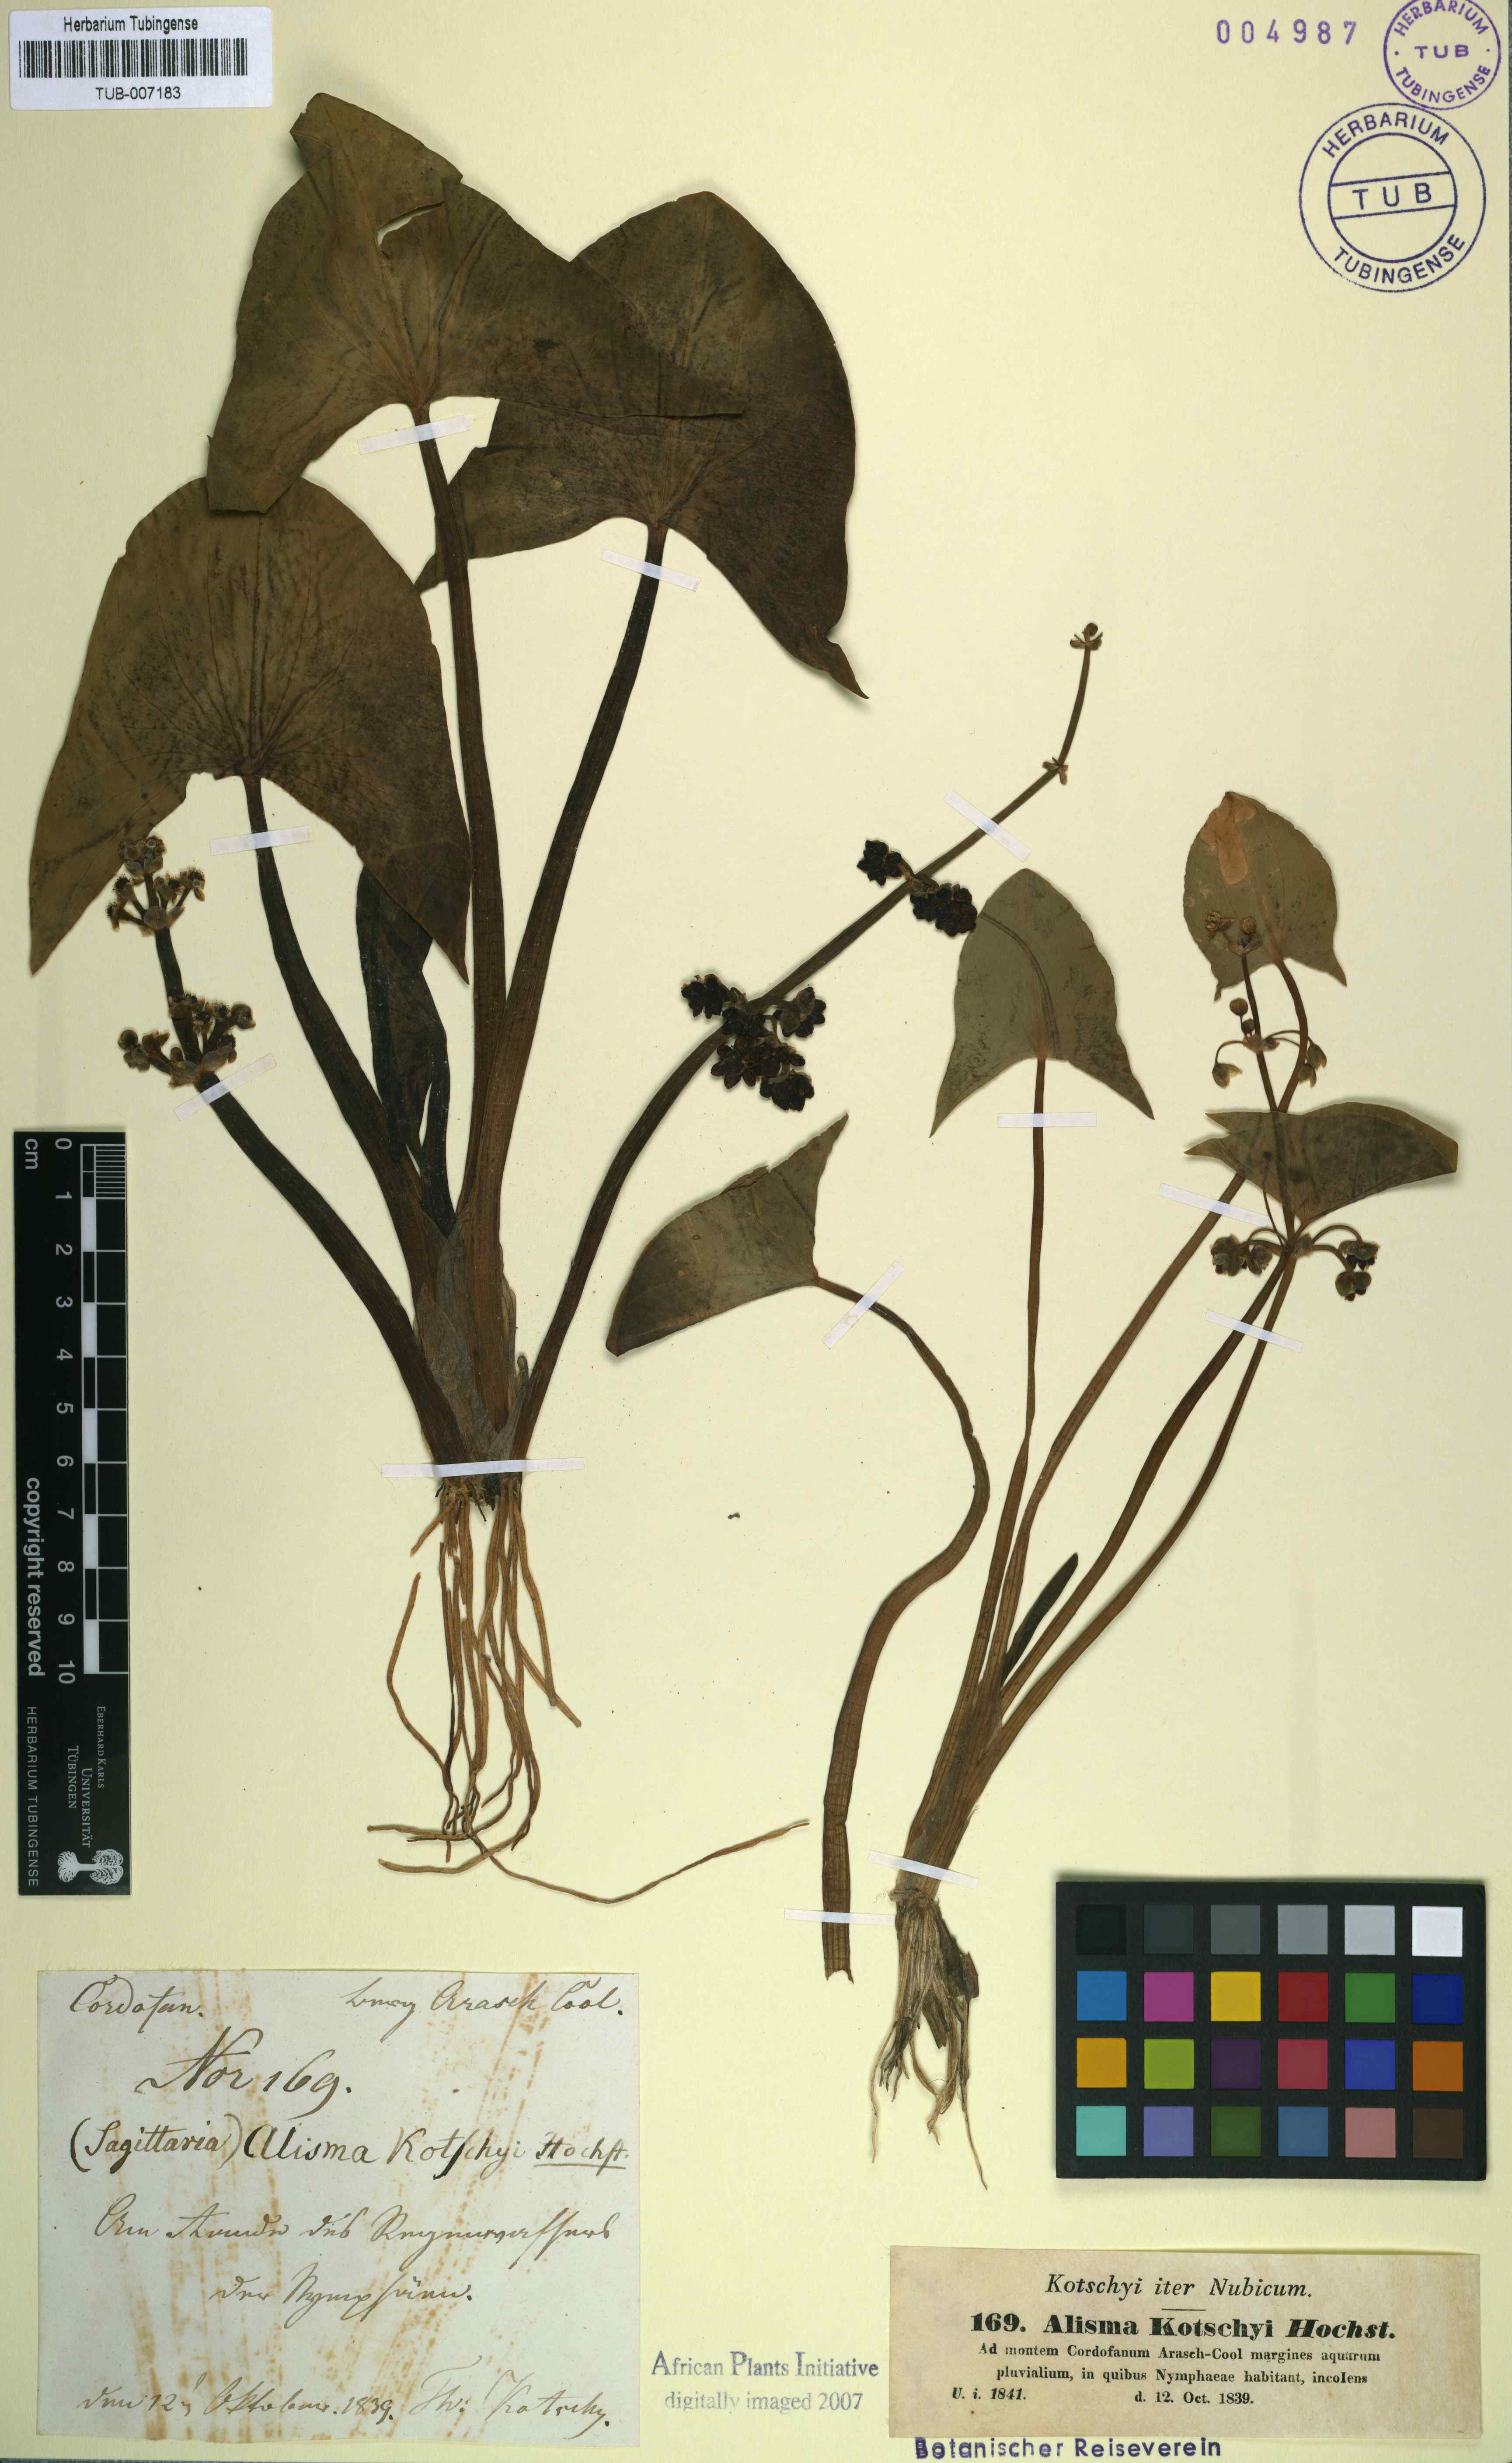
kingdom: Plantae
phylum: Tracheophyta
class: Liliopsida
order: Alismatales
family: Alismataceae
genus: Limnophyton
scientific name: Limnophyton obtusifolium
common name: Arrow head
